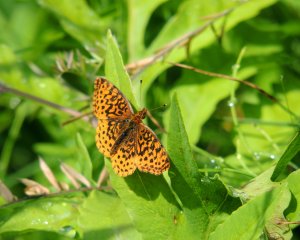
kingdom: Animalia
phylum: Arthropoda
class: Insecta
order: Lepidoptera
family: Nymphalidae
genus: Clossiana
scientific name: Clossiana toddi
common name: Meadow Fritillary
